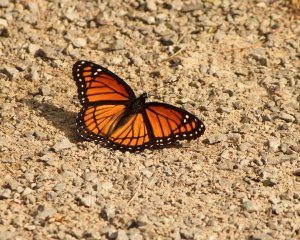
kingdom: Animalia
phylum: Arthropoda
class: Insecta
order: Lepidoptera
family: Nymphalidae
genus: Limenitis
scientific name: Limenitis archippus
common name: Viceroy
